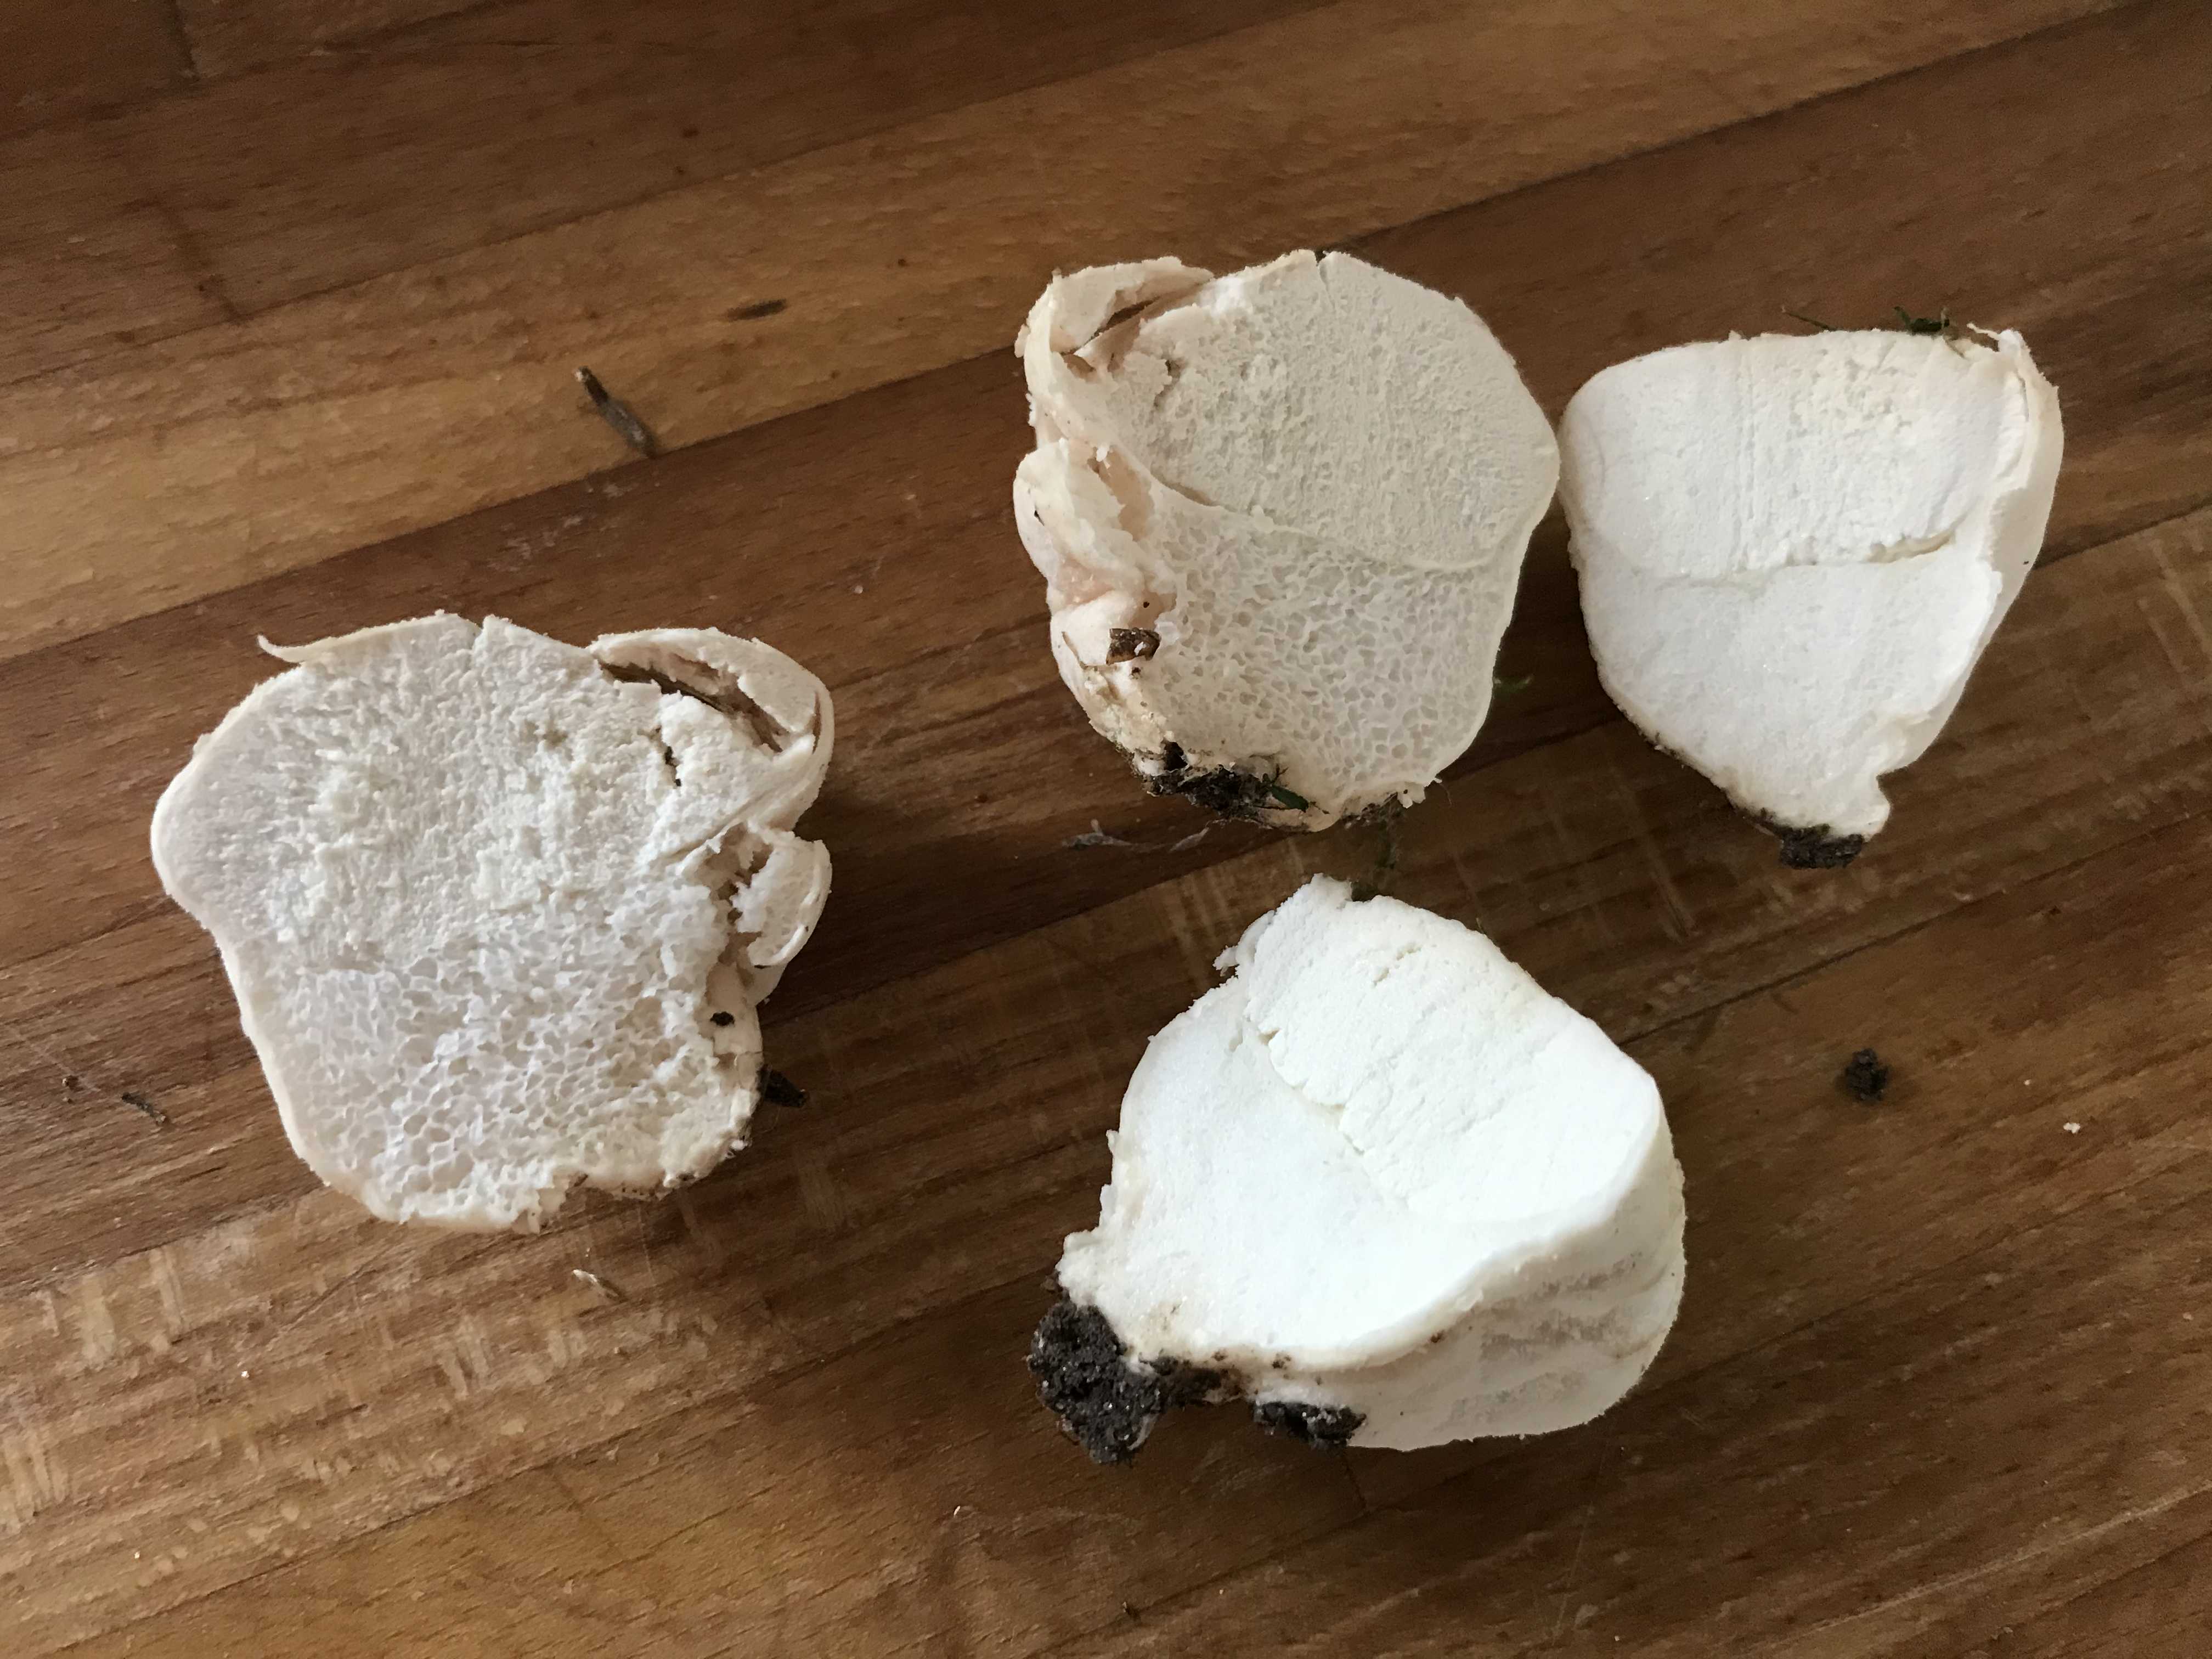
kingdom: Fungi
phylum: Basidiomycota
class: Agaricomycetes
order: Agaricales
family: Lycoperdaceae
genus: Lycoperdon
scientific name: Lycoperdon pratense
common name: flad støvbold
